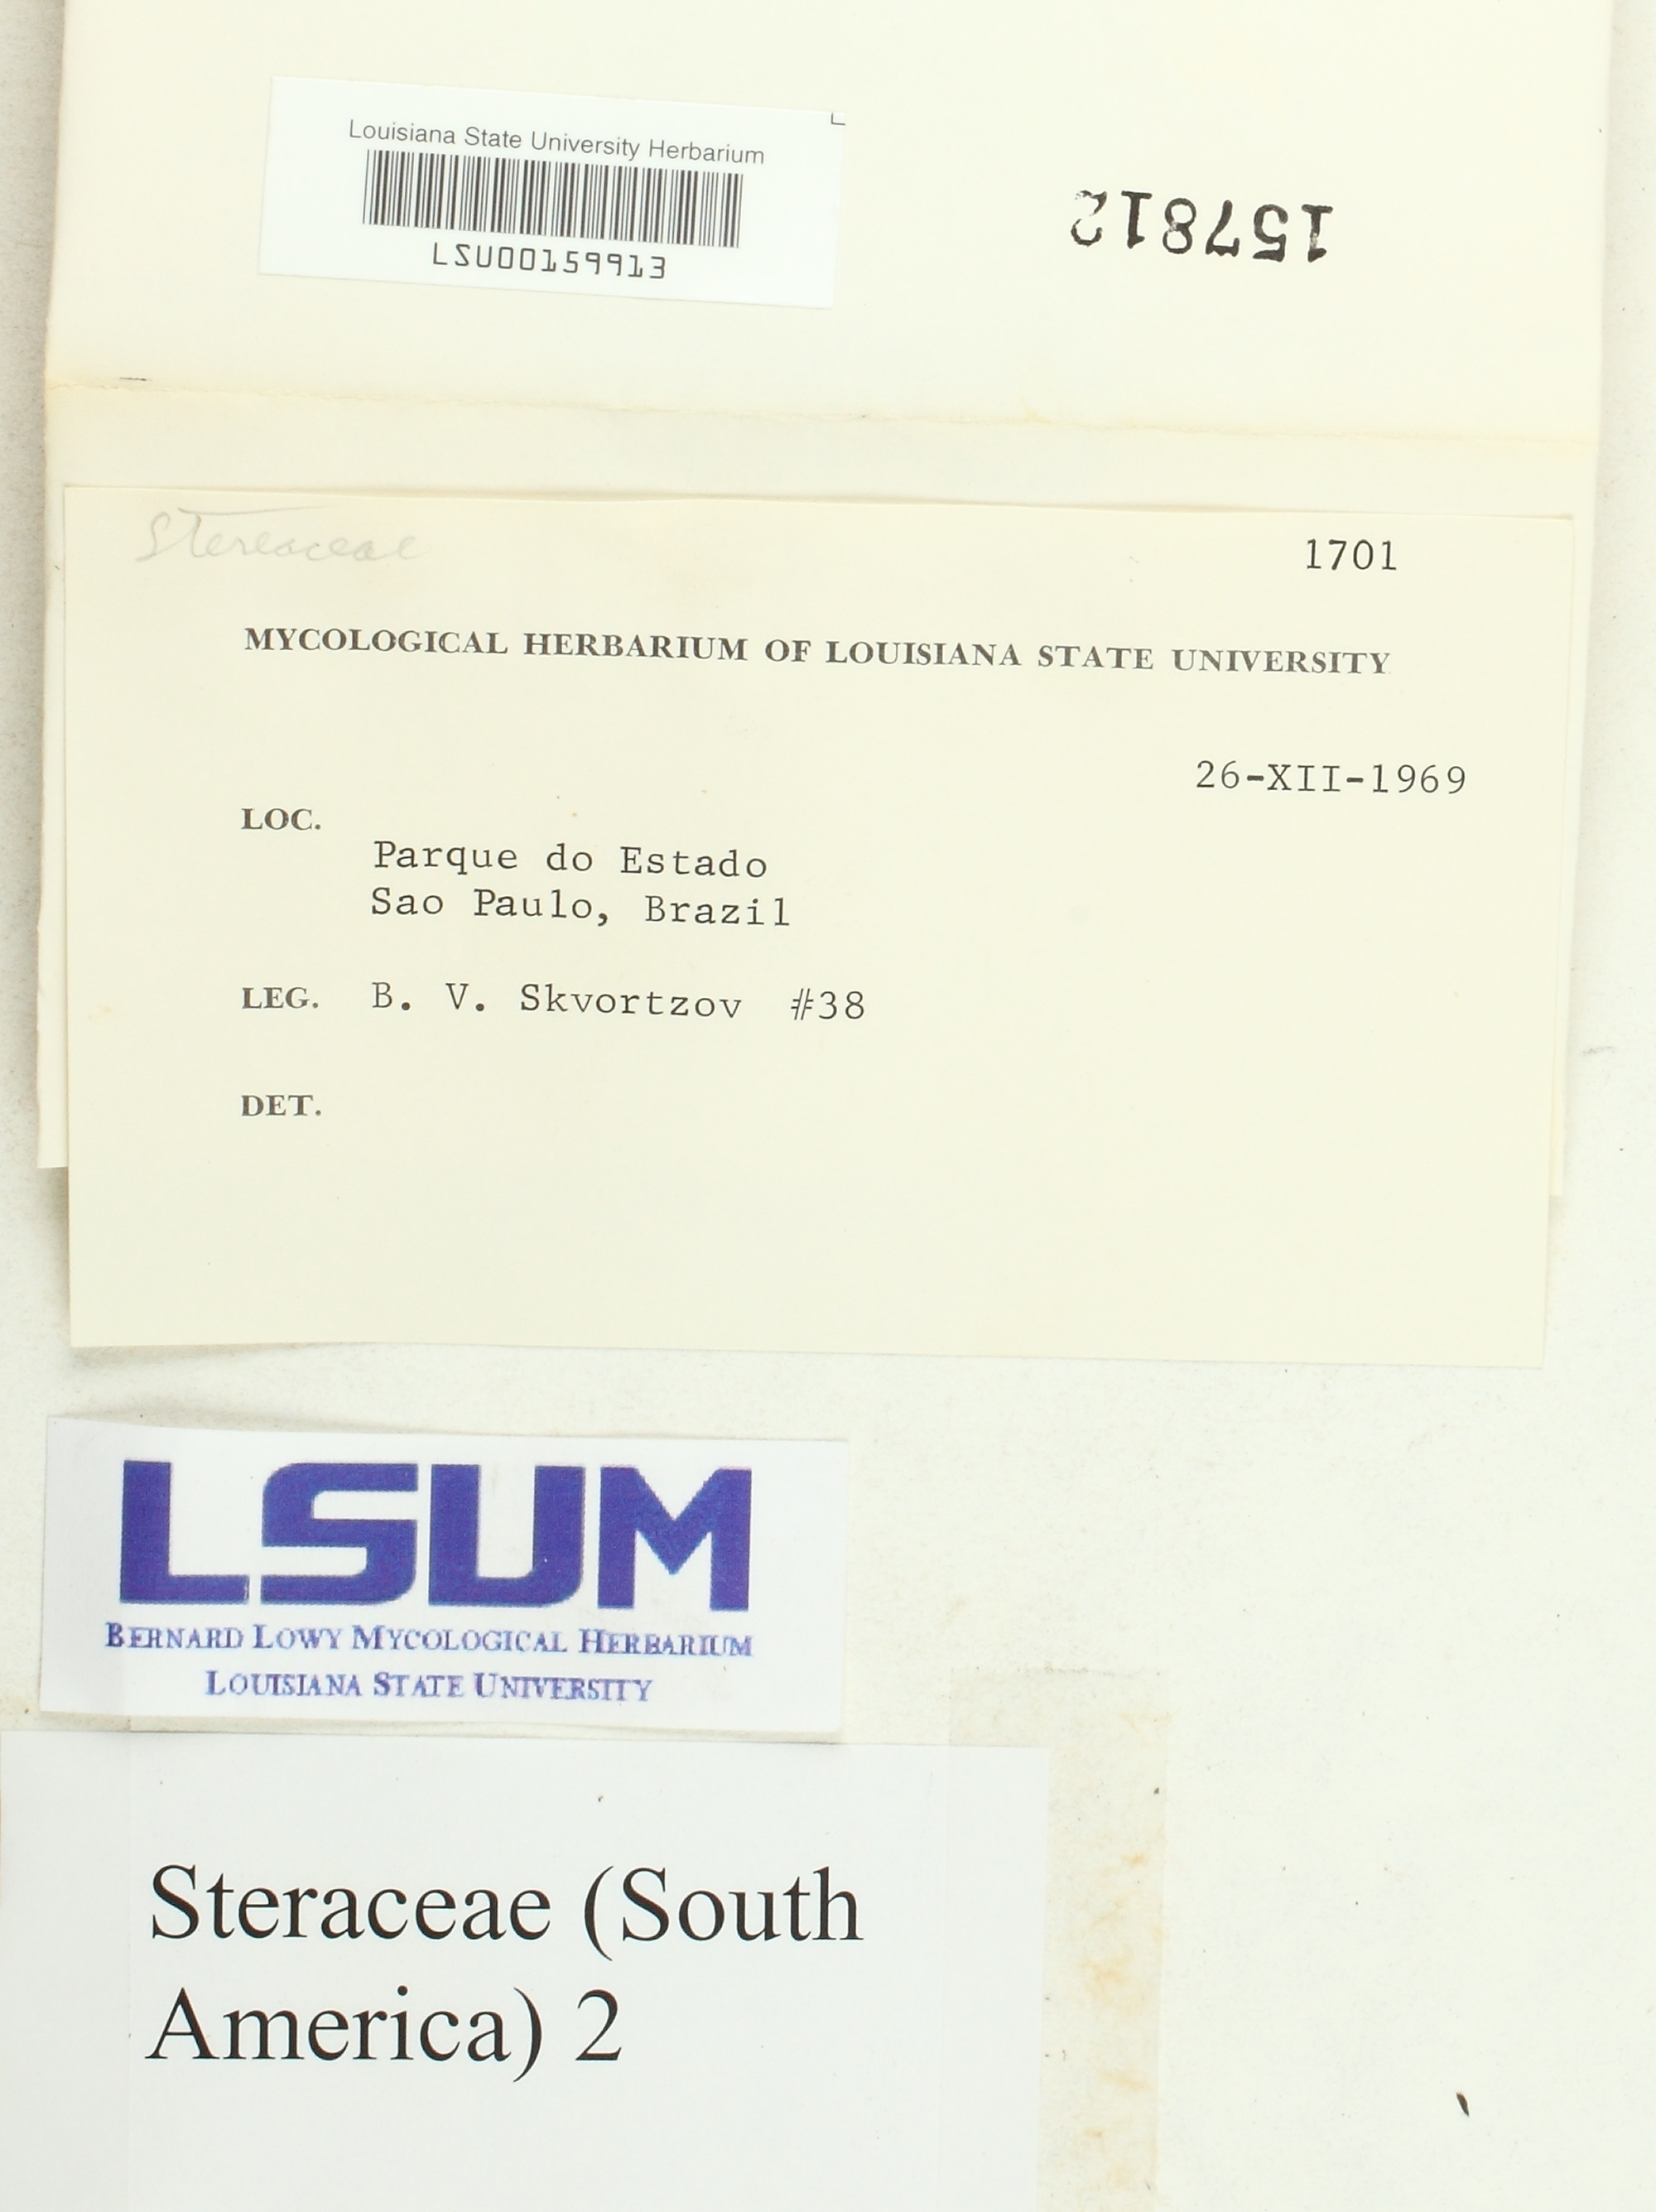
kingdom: Fungi
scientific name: Fungi
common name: Fungi
